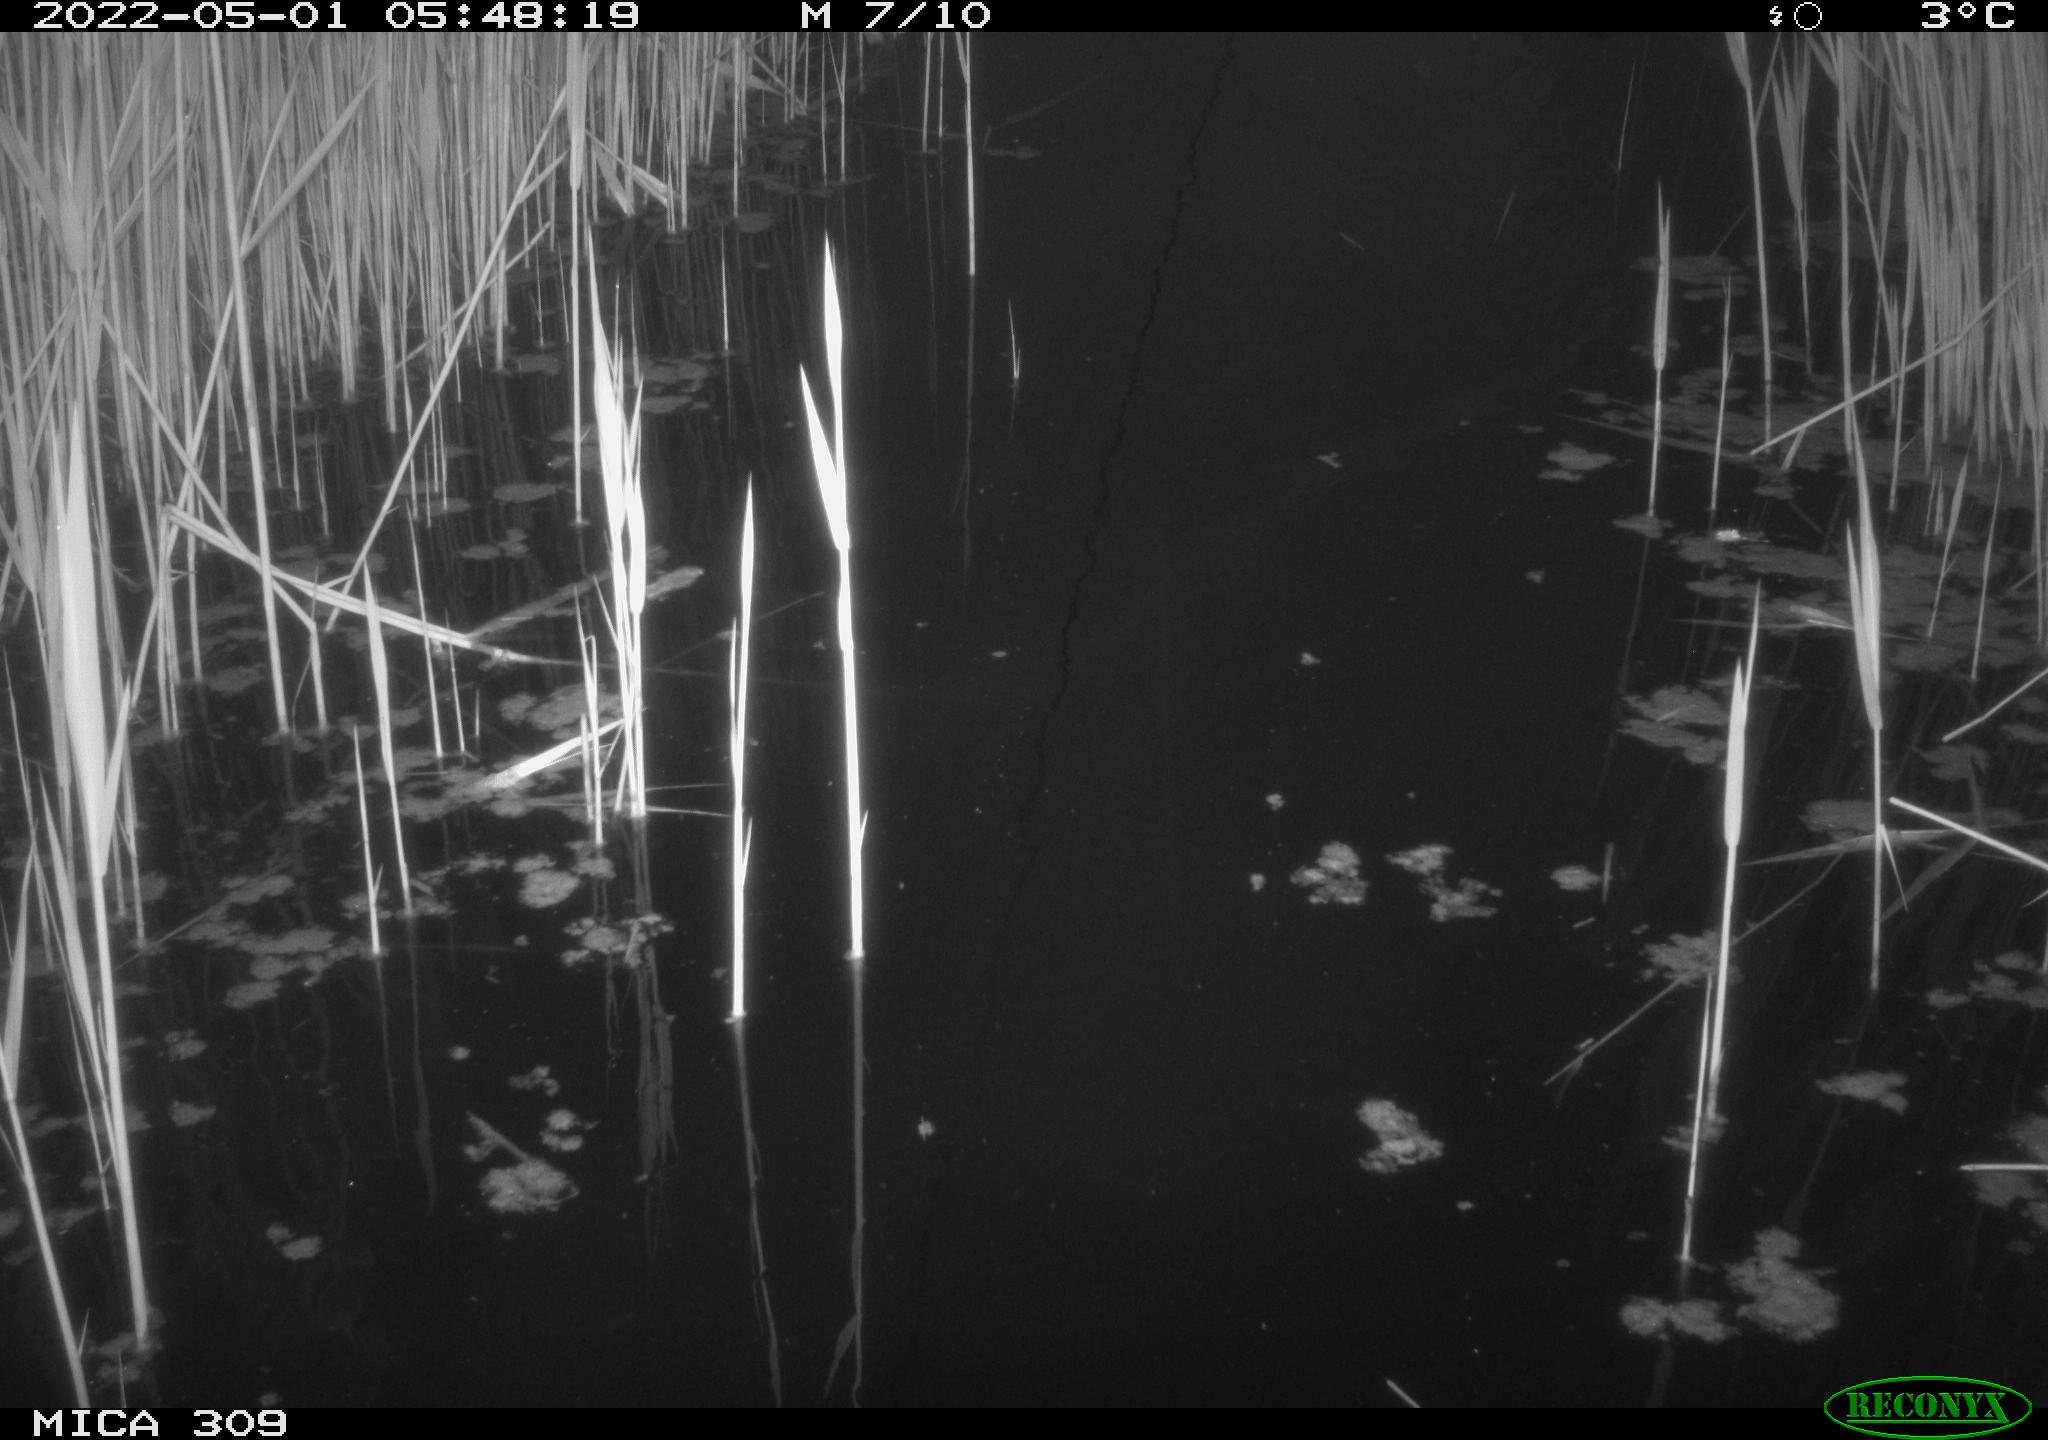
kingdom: Animalia
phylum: Chordata
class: Aves
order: Gruiformes
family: Rallidae
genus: Gallinula
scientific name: Gallinula chloropus
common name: Common moorhen
